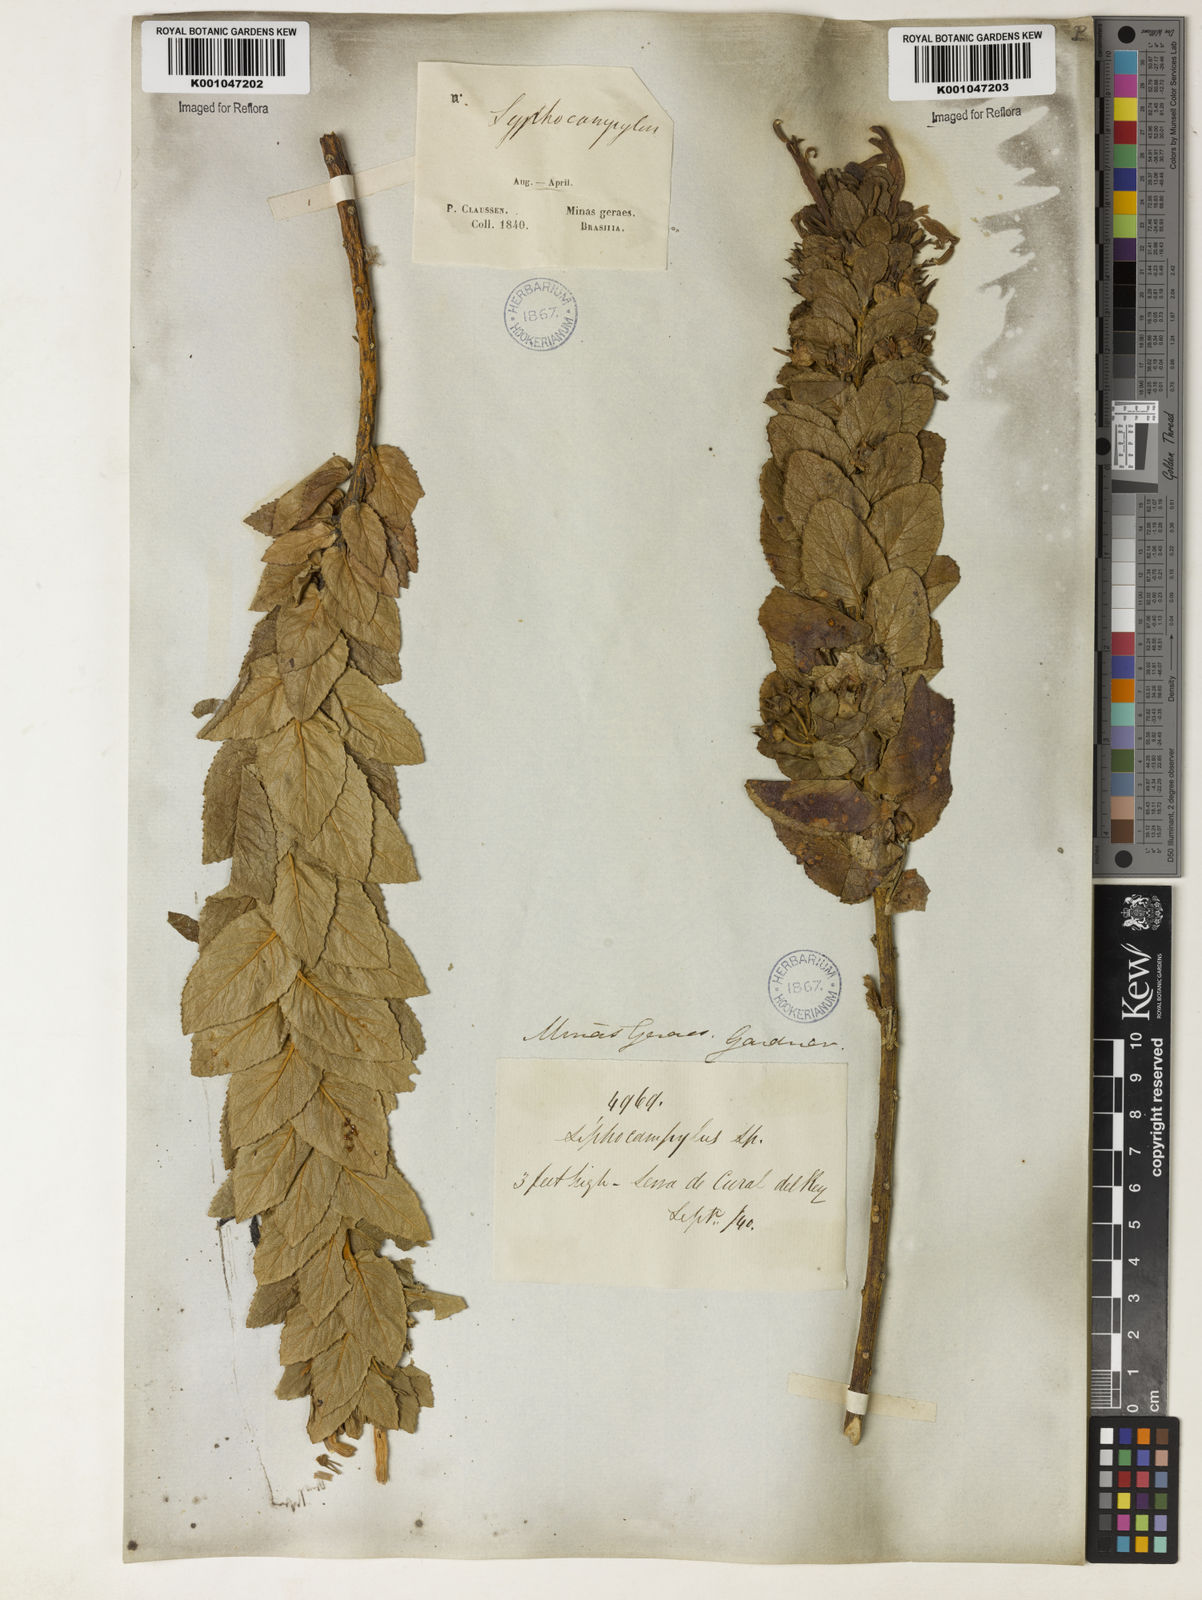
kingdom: Plantae
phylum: Tracheophyta
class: Magnoliopsida
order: Asterales
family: Campanulaceae
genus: Siphocampylus
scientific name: Siphocampylus imbricatus
